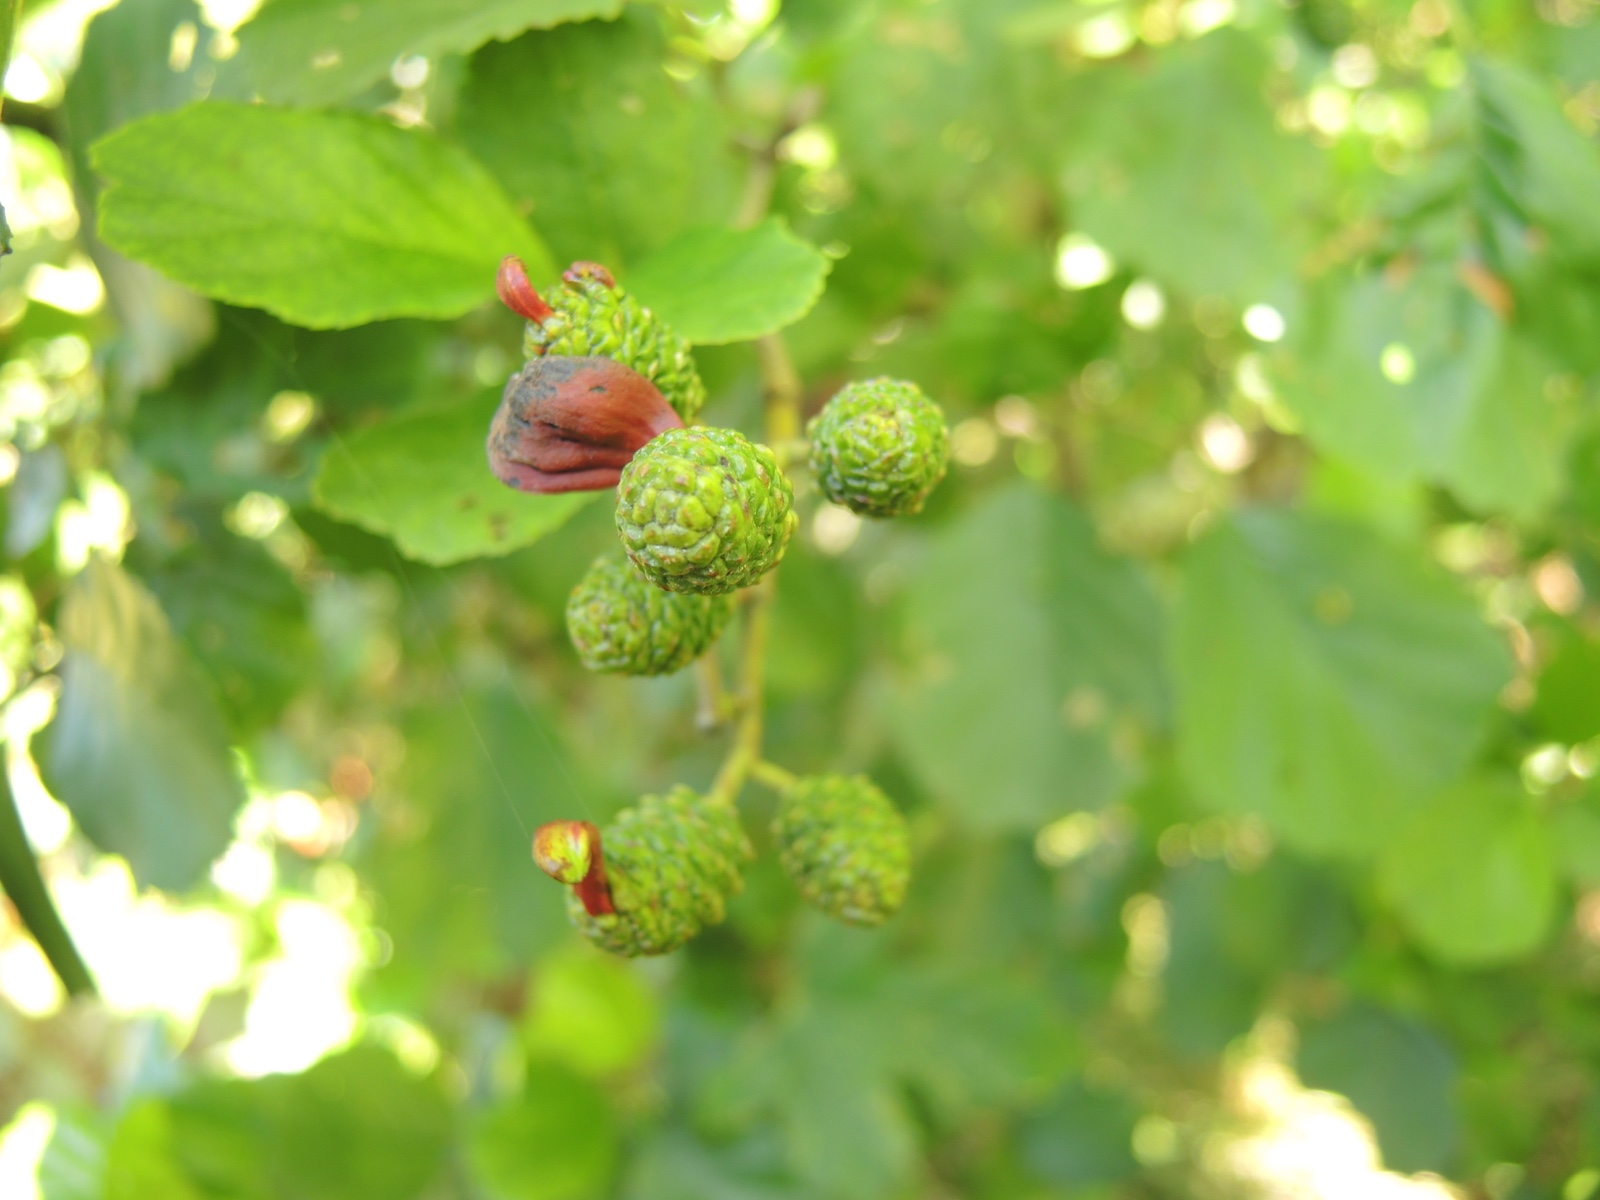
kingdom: Fungi
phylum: Ascomycota
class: Taphrinomycetes
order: Taphrinales
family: Taphrinaceae
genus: Taphrina
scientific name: Taphrina alni
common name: Alder tongue
